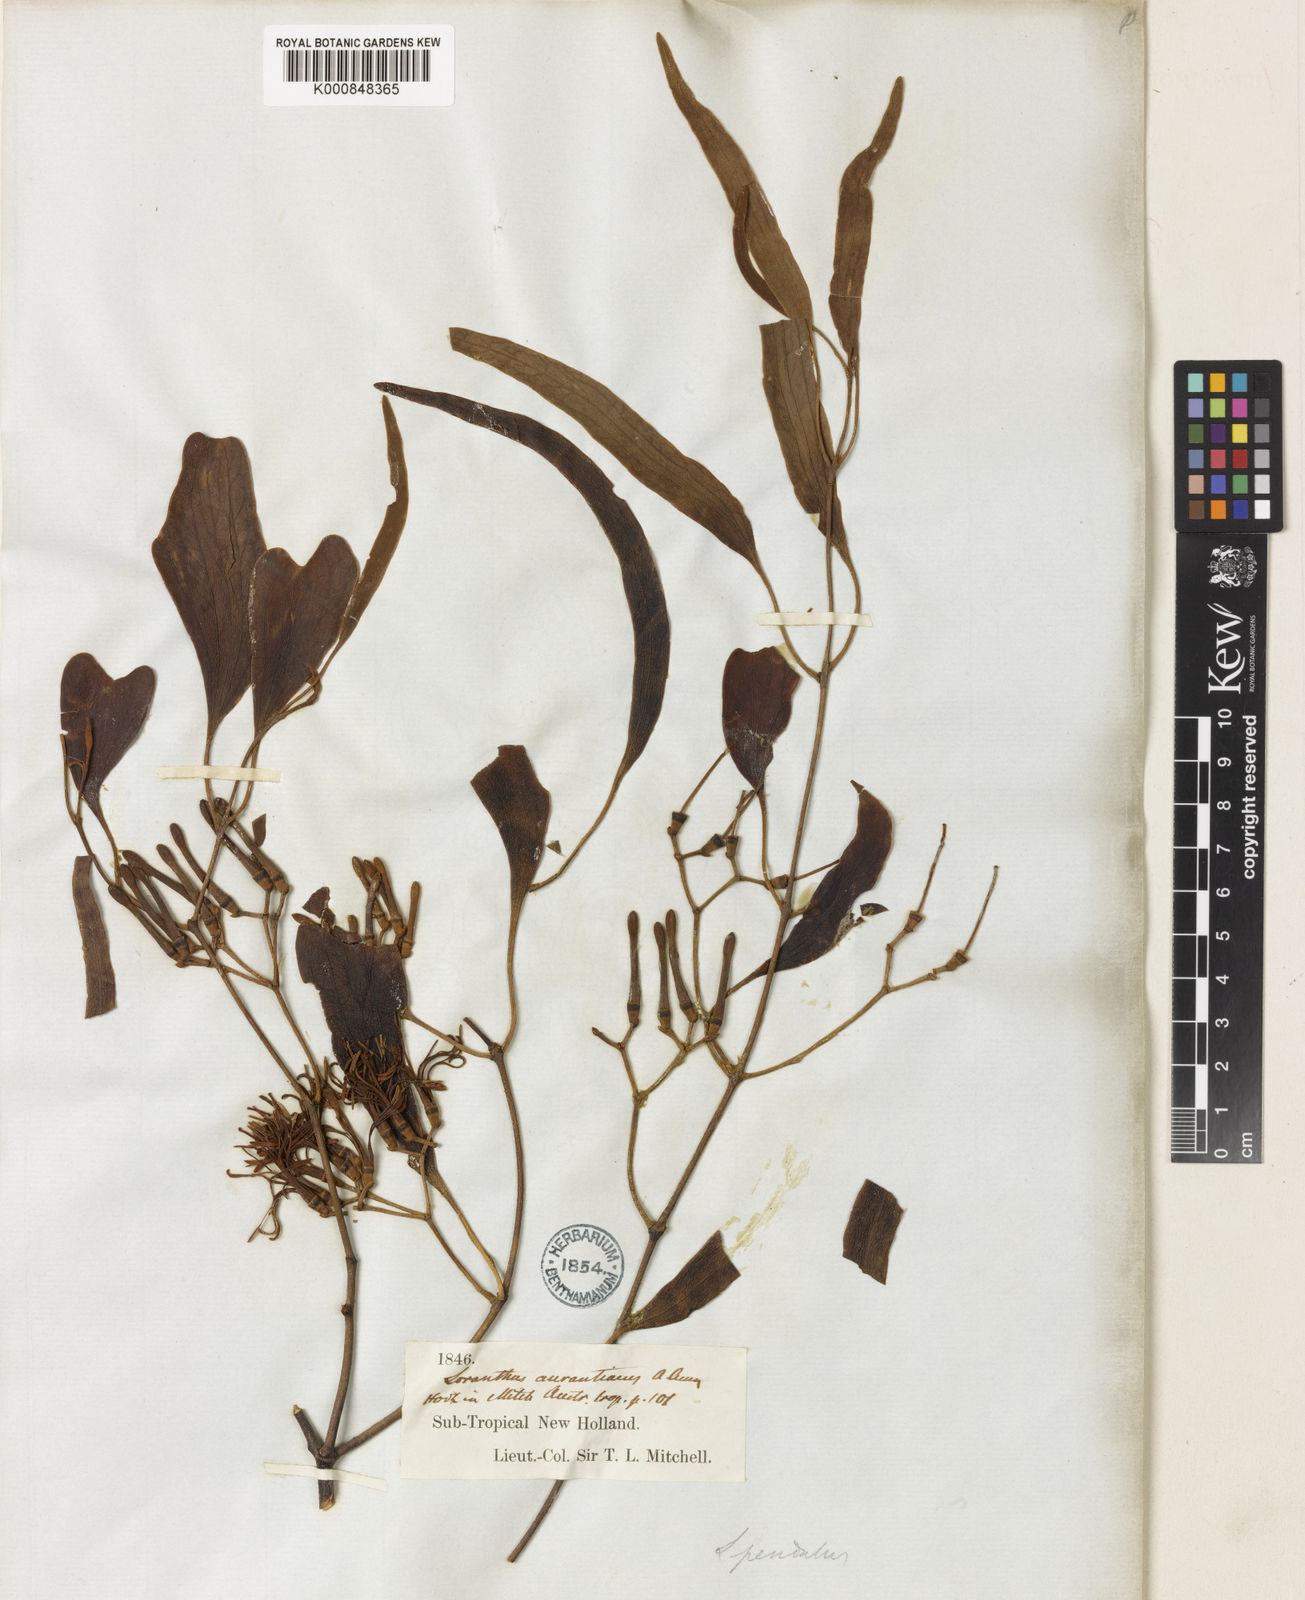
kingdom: Plantae
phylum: Tracheophyta
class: Magnoliopsida
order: Santalales
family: Loranthaceae
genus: Amyema
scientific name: Amyema miquelii
